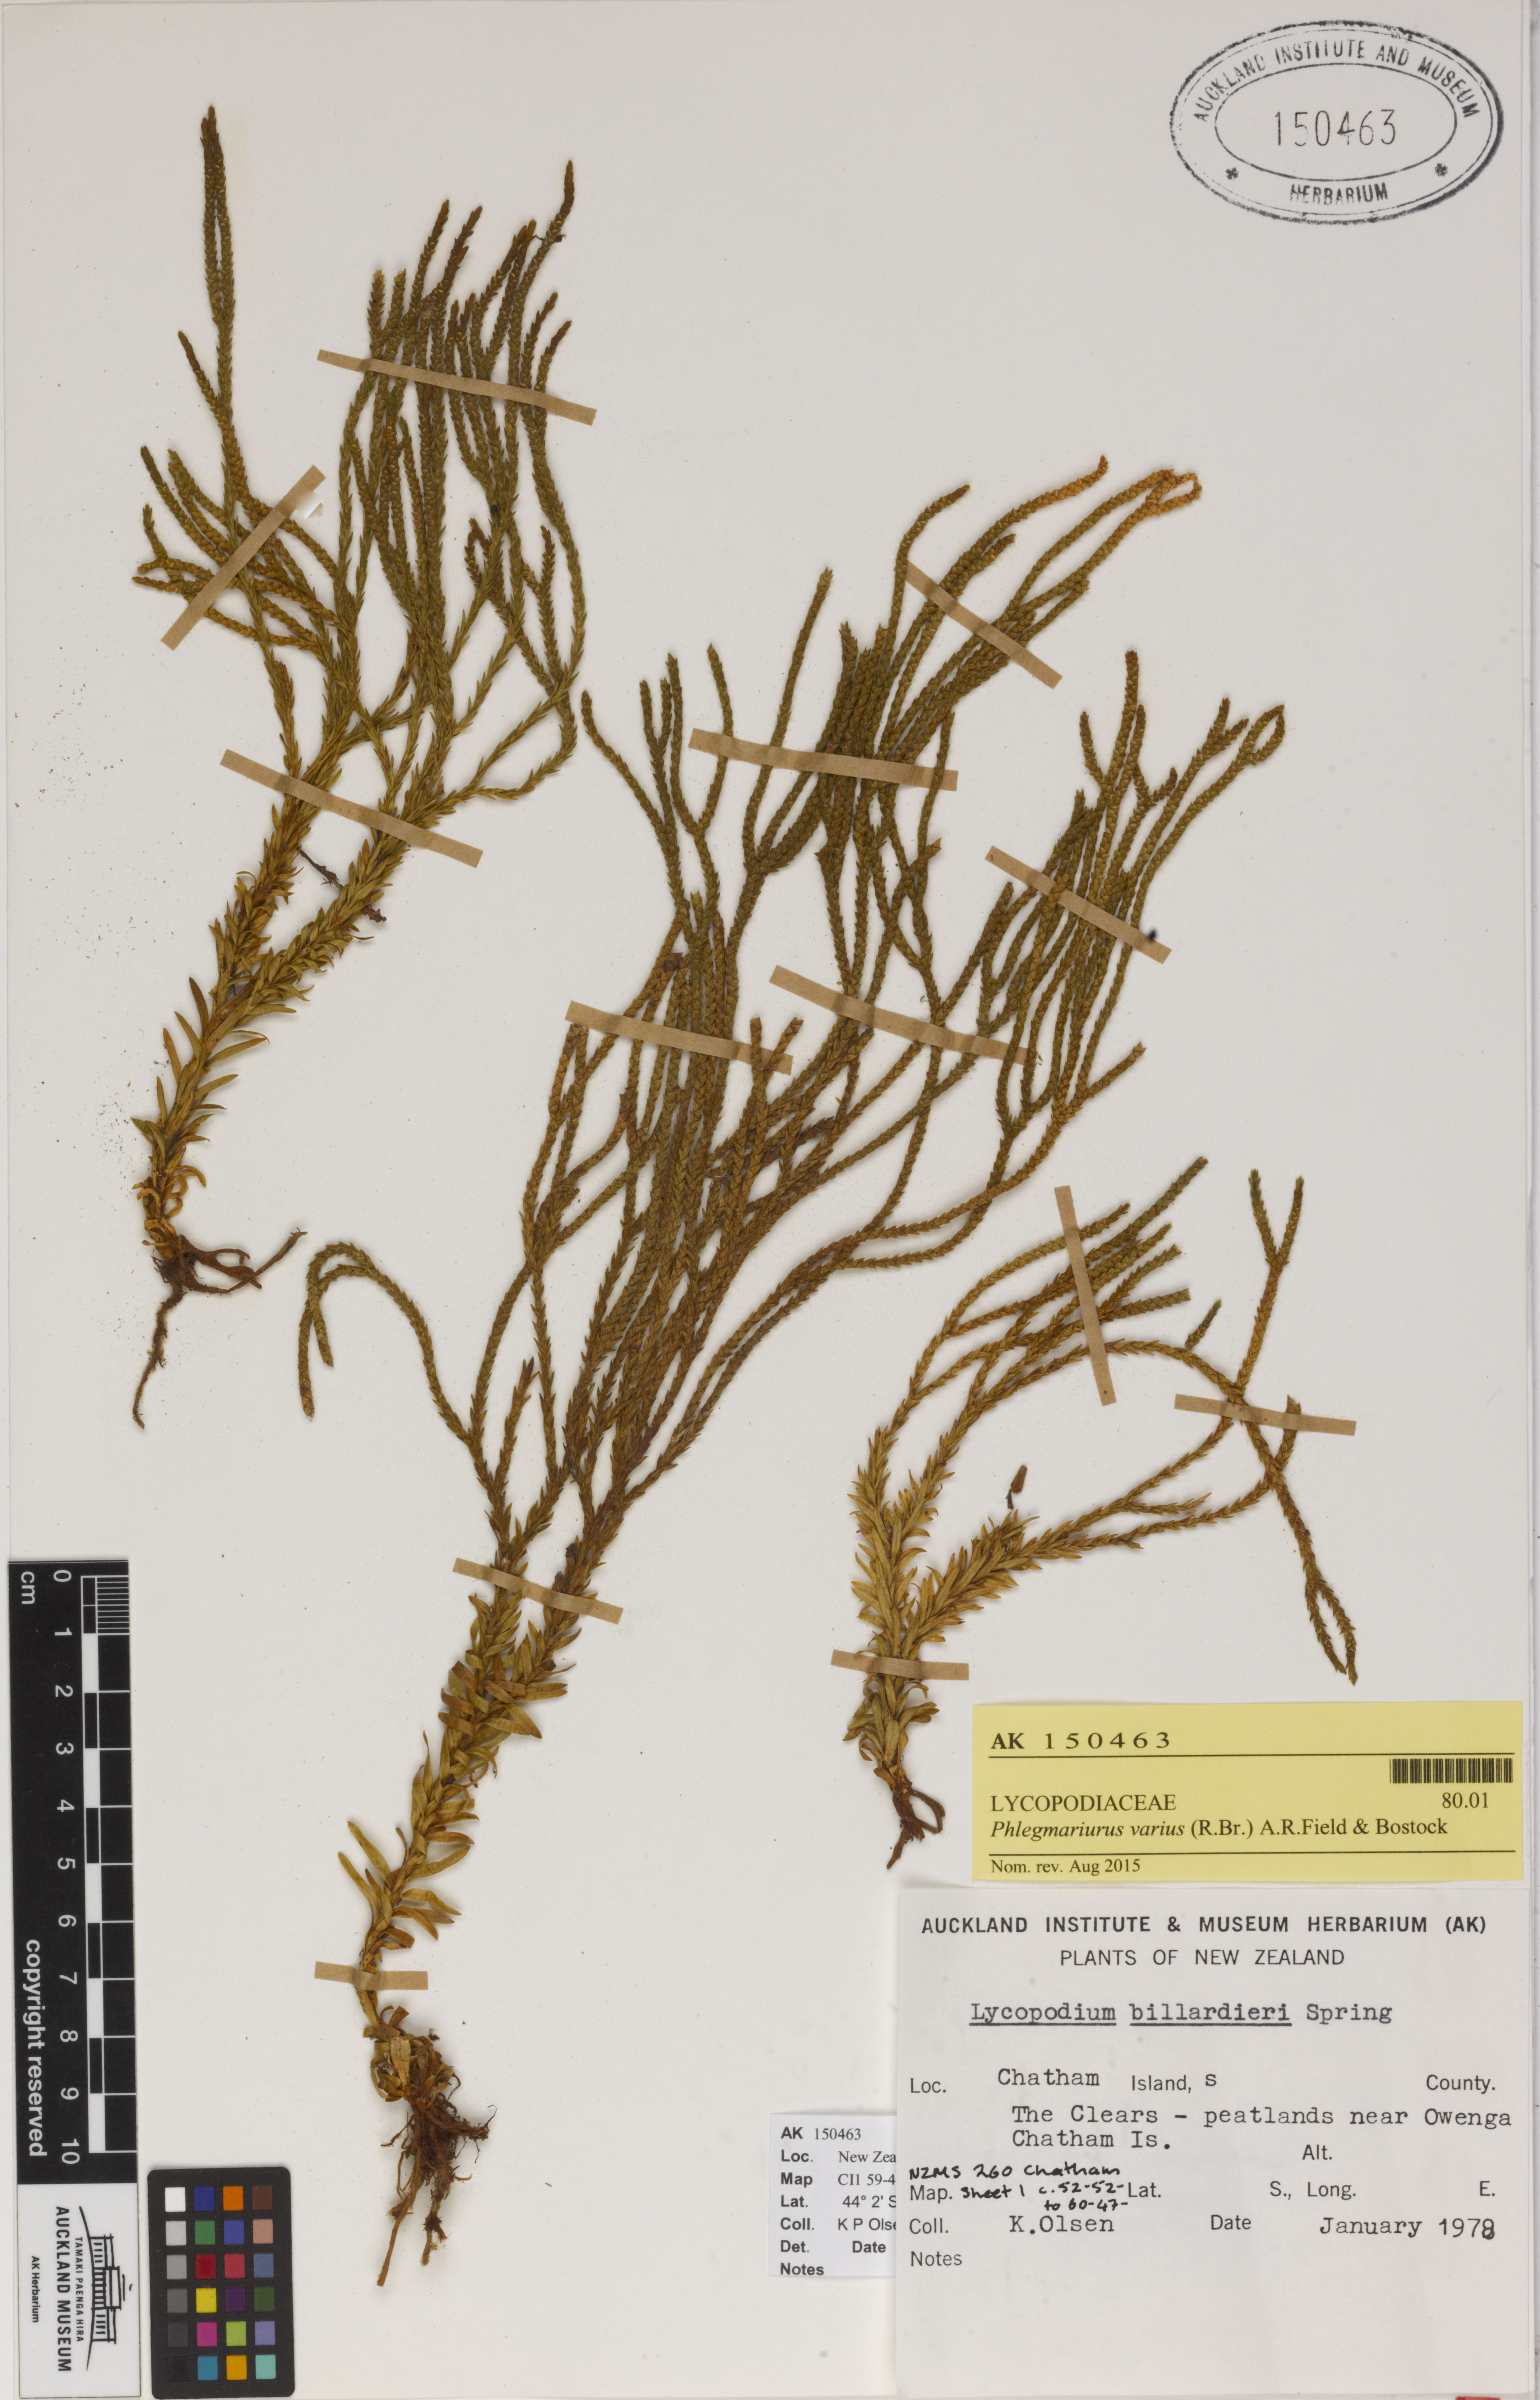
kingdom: Plantae
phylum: Tracheophyta
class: Lycopodiopsida
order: Lycopodiales
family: Lycopodiaceae
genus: Phlegmariurus
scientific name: Phlegmariurus billardierei
